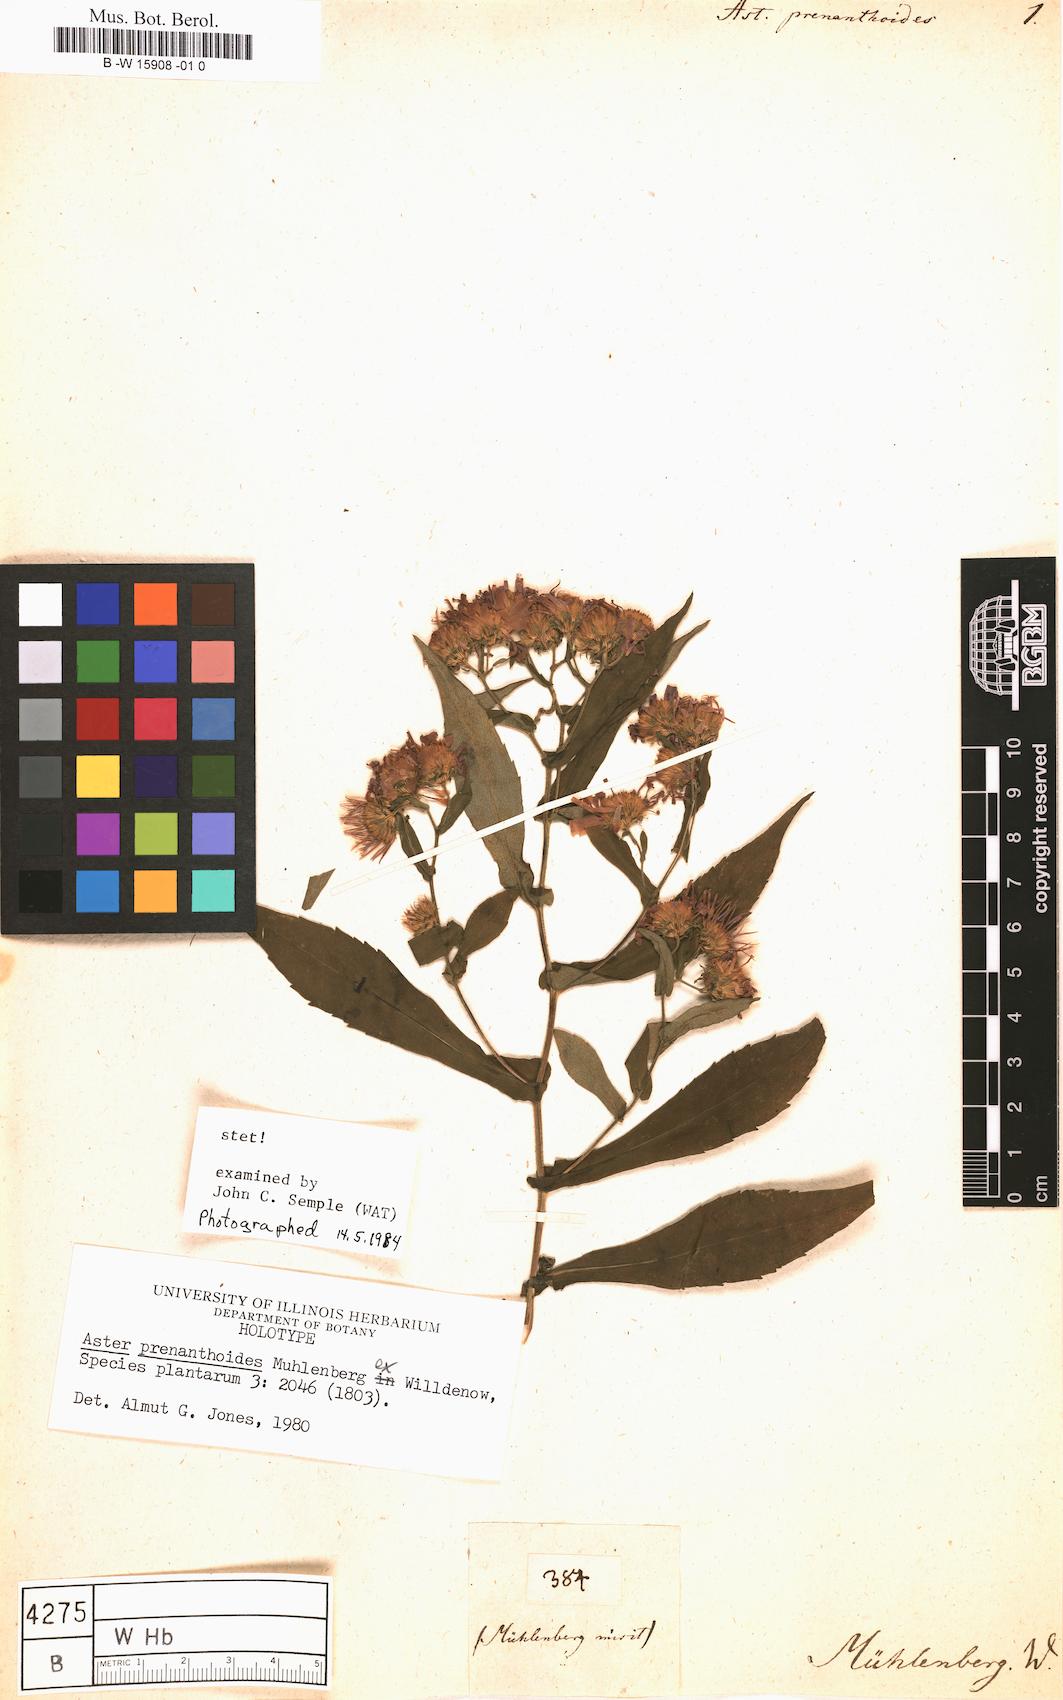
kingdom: Plantae
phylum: Tracheophyta
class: Magnoliopsida
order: Asterales
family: Asteraceae
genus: Symphyotrichum
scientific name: Symphyotrichum prenanthoides
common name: Crooked-stem aster
